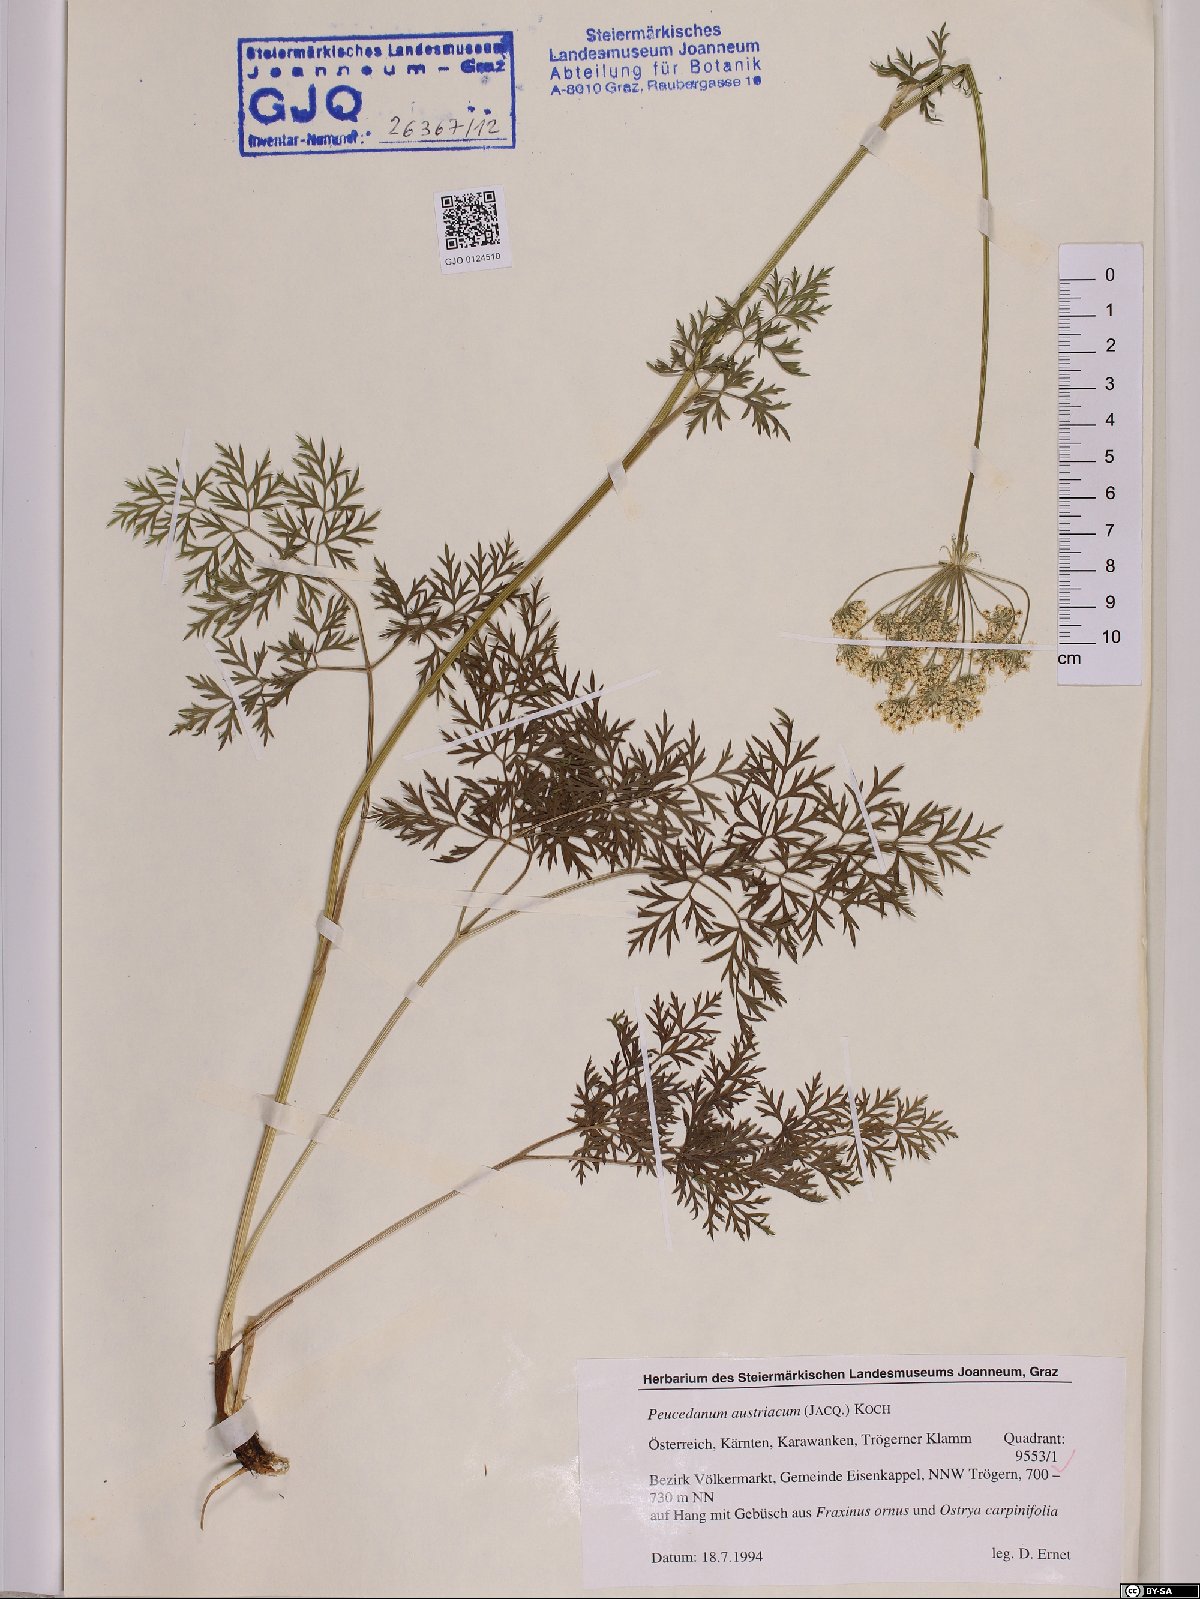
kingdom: Plantae
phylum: Tracheophyta
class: Magnoliopsida
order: Apiales
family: Apiaceae
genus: Peucedanum
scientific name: Peucedanum austriacum
